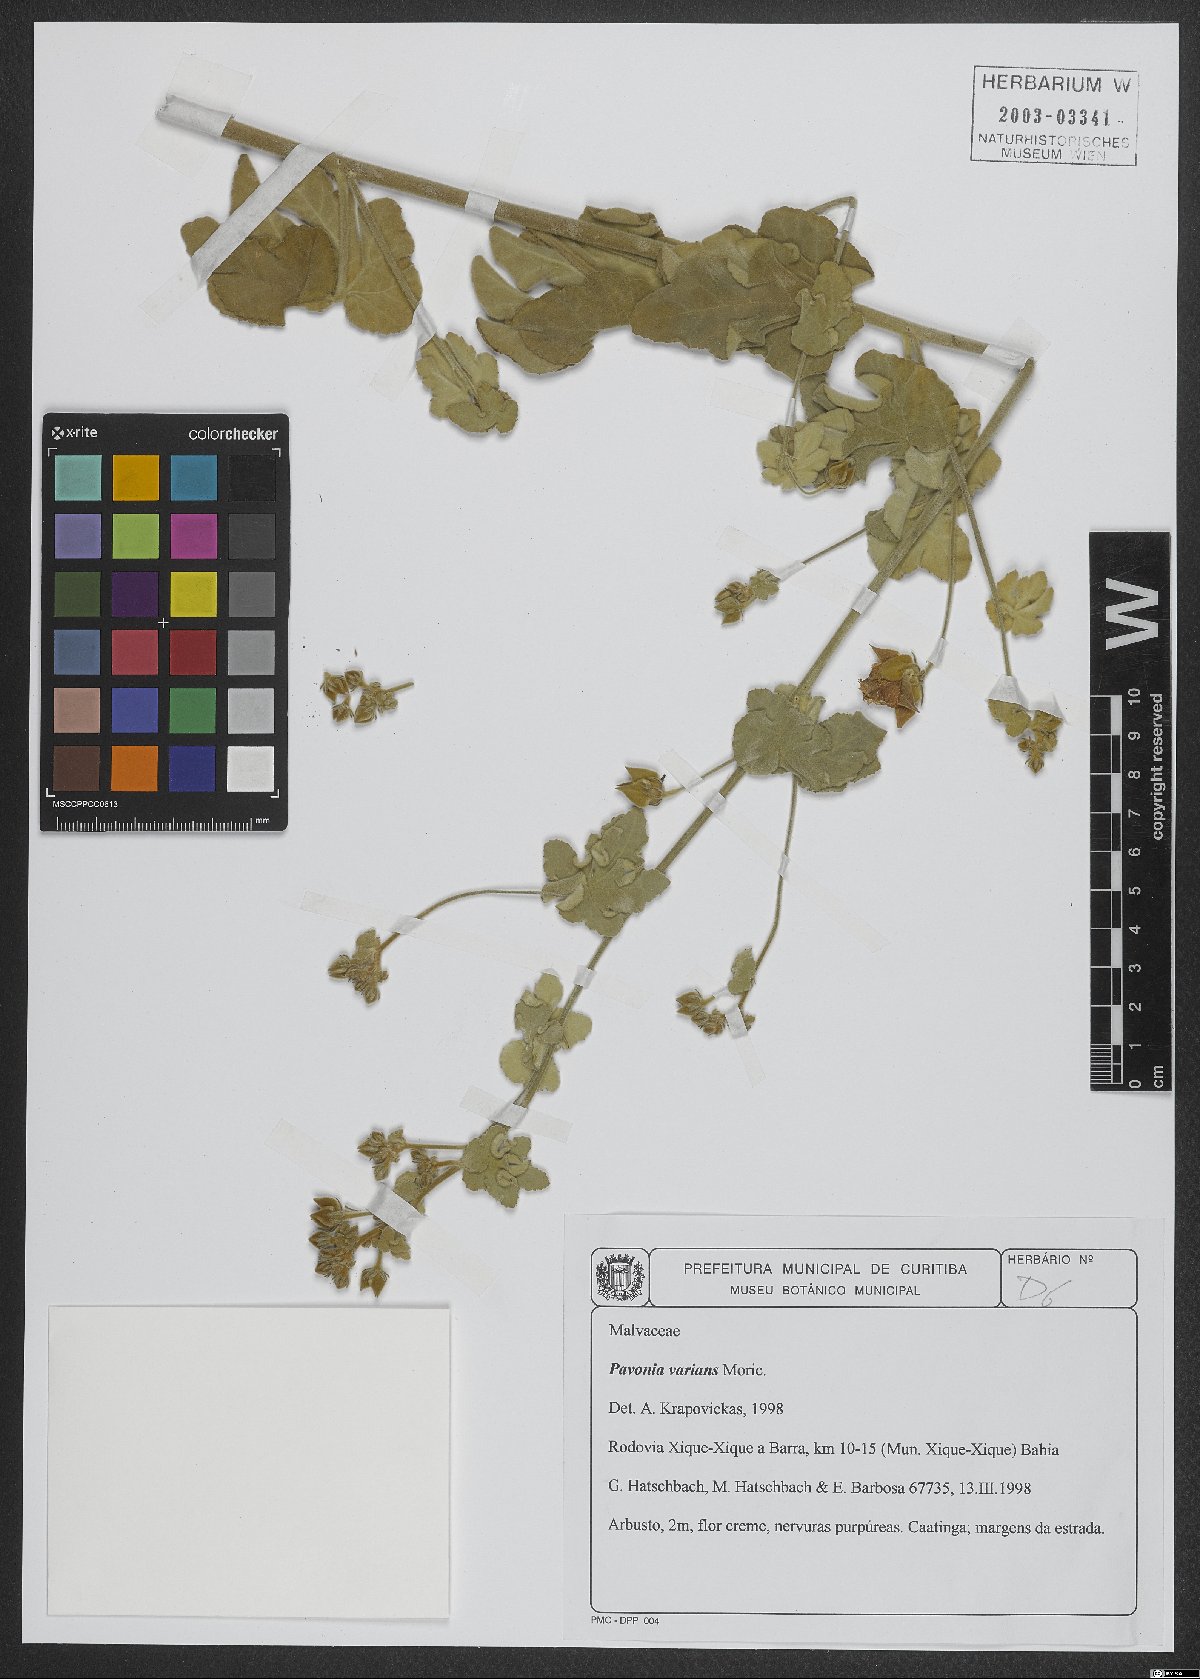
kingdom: Plantae
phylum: Tracheophyta
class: Magnoliopsida
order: Malvales
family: Malvaceae
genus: Pavonia
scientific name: Pavonia varians
